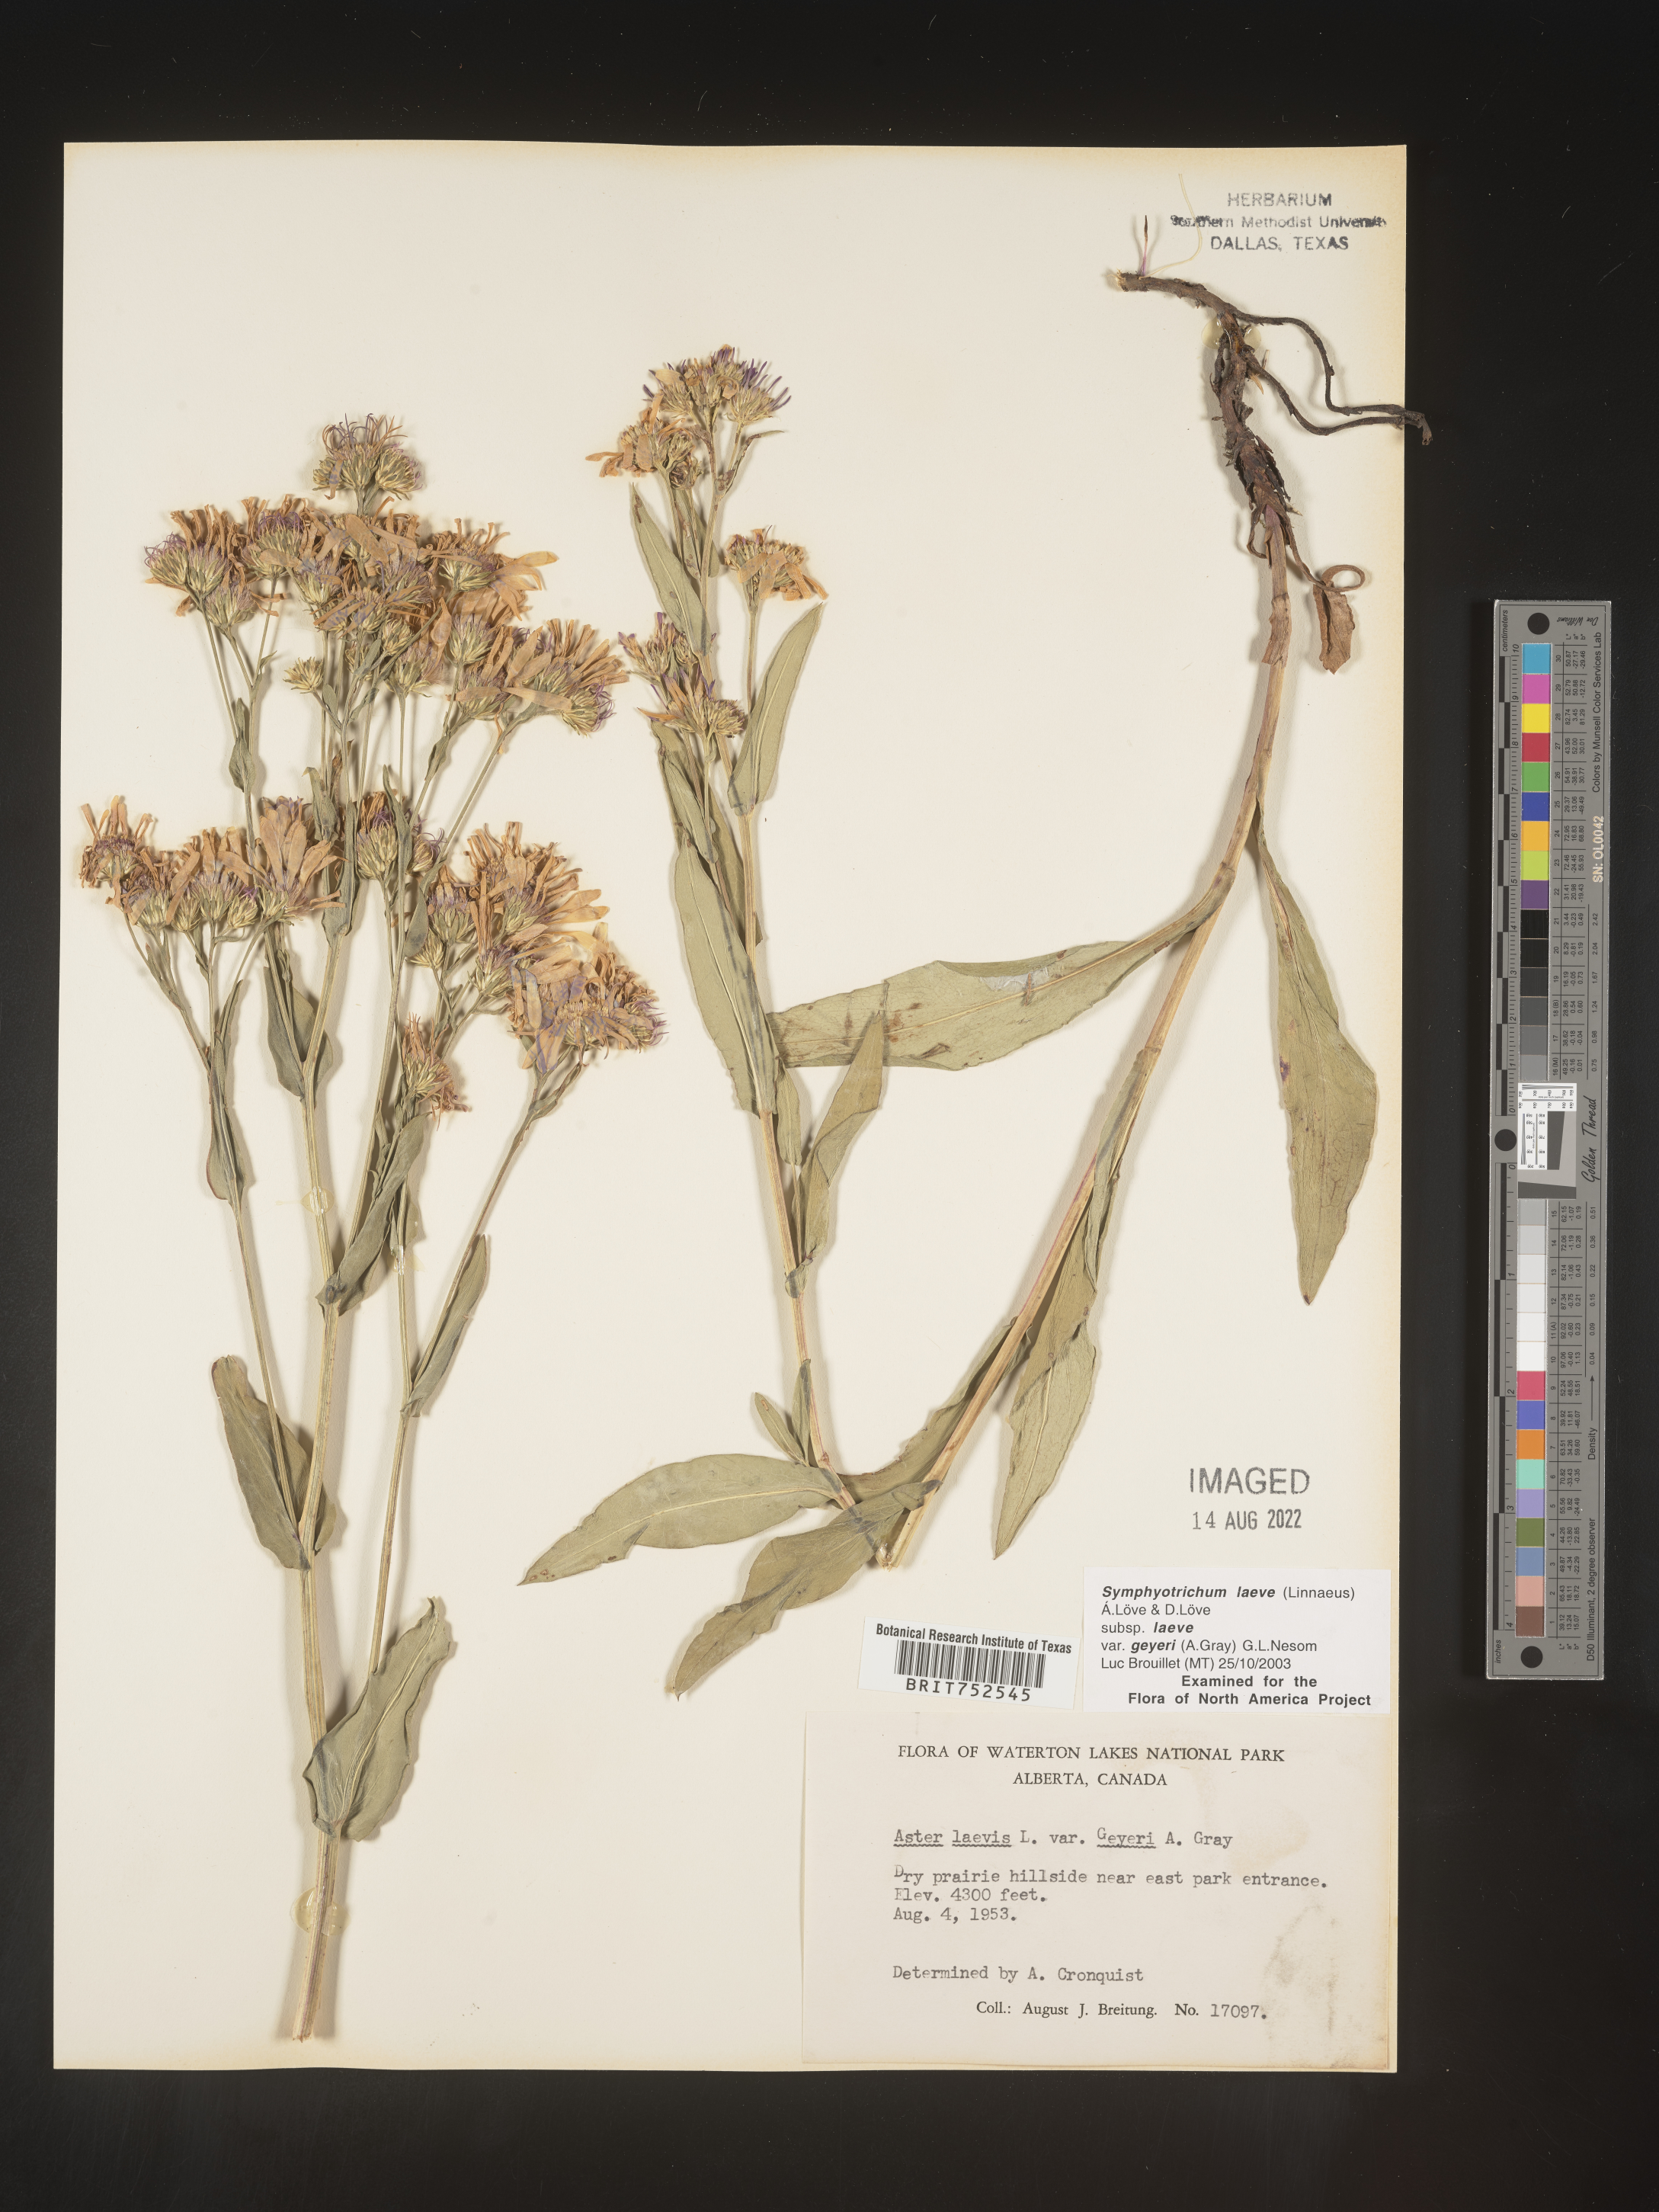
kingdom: Plantae
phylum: Tracheophyta
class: Magnoliopsida
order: Asterales
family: Asteraceae
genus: Symphyotrichum
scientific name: Symphyotrichum laeve
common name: Glaucous aster
